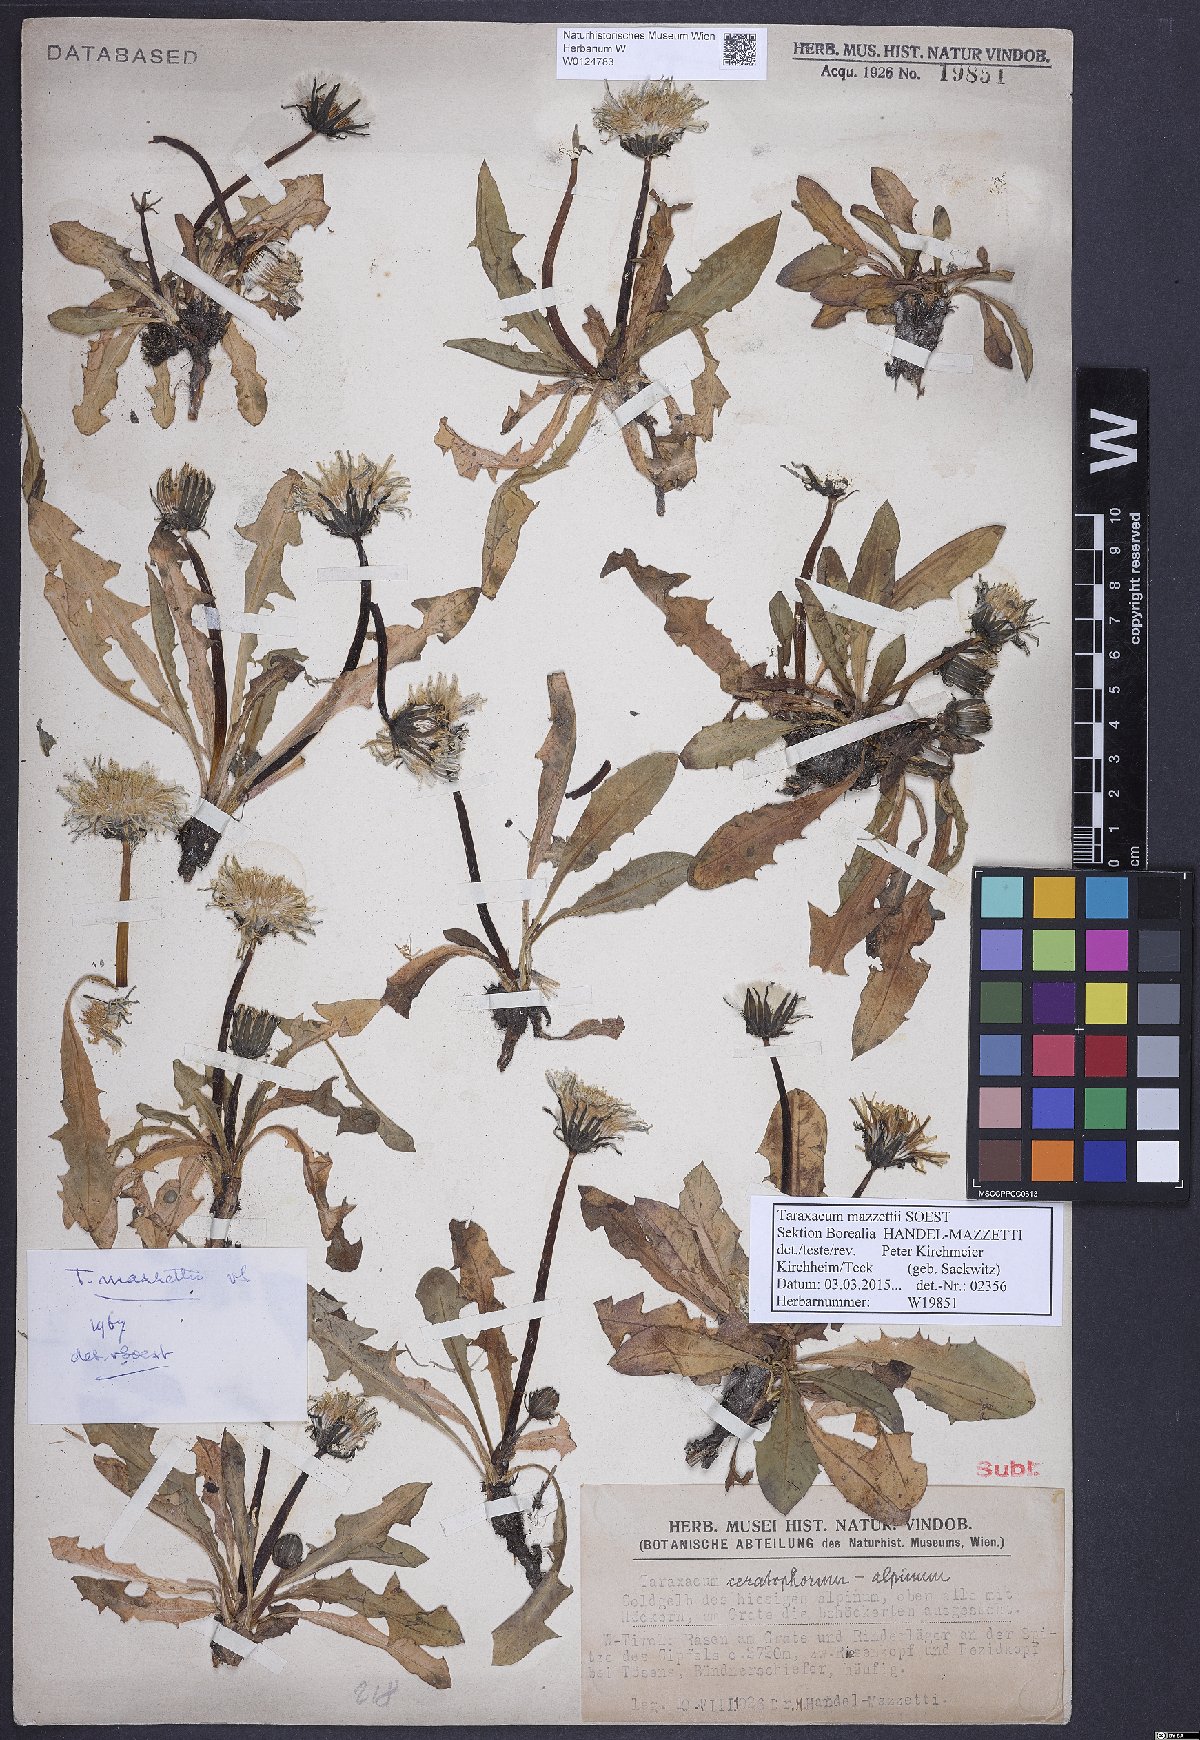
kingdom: Plantae
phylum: Tracheophyta
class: Magnoliopsida
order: Asterales
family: Asteraceae
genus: Taraxacum
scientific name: Taraxacum mazzetii
